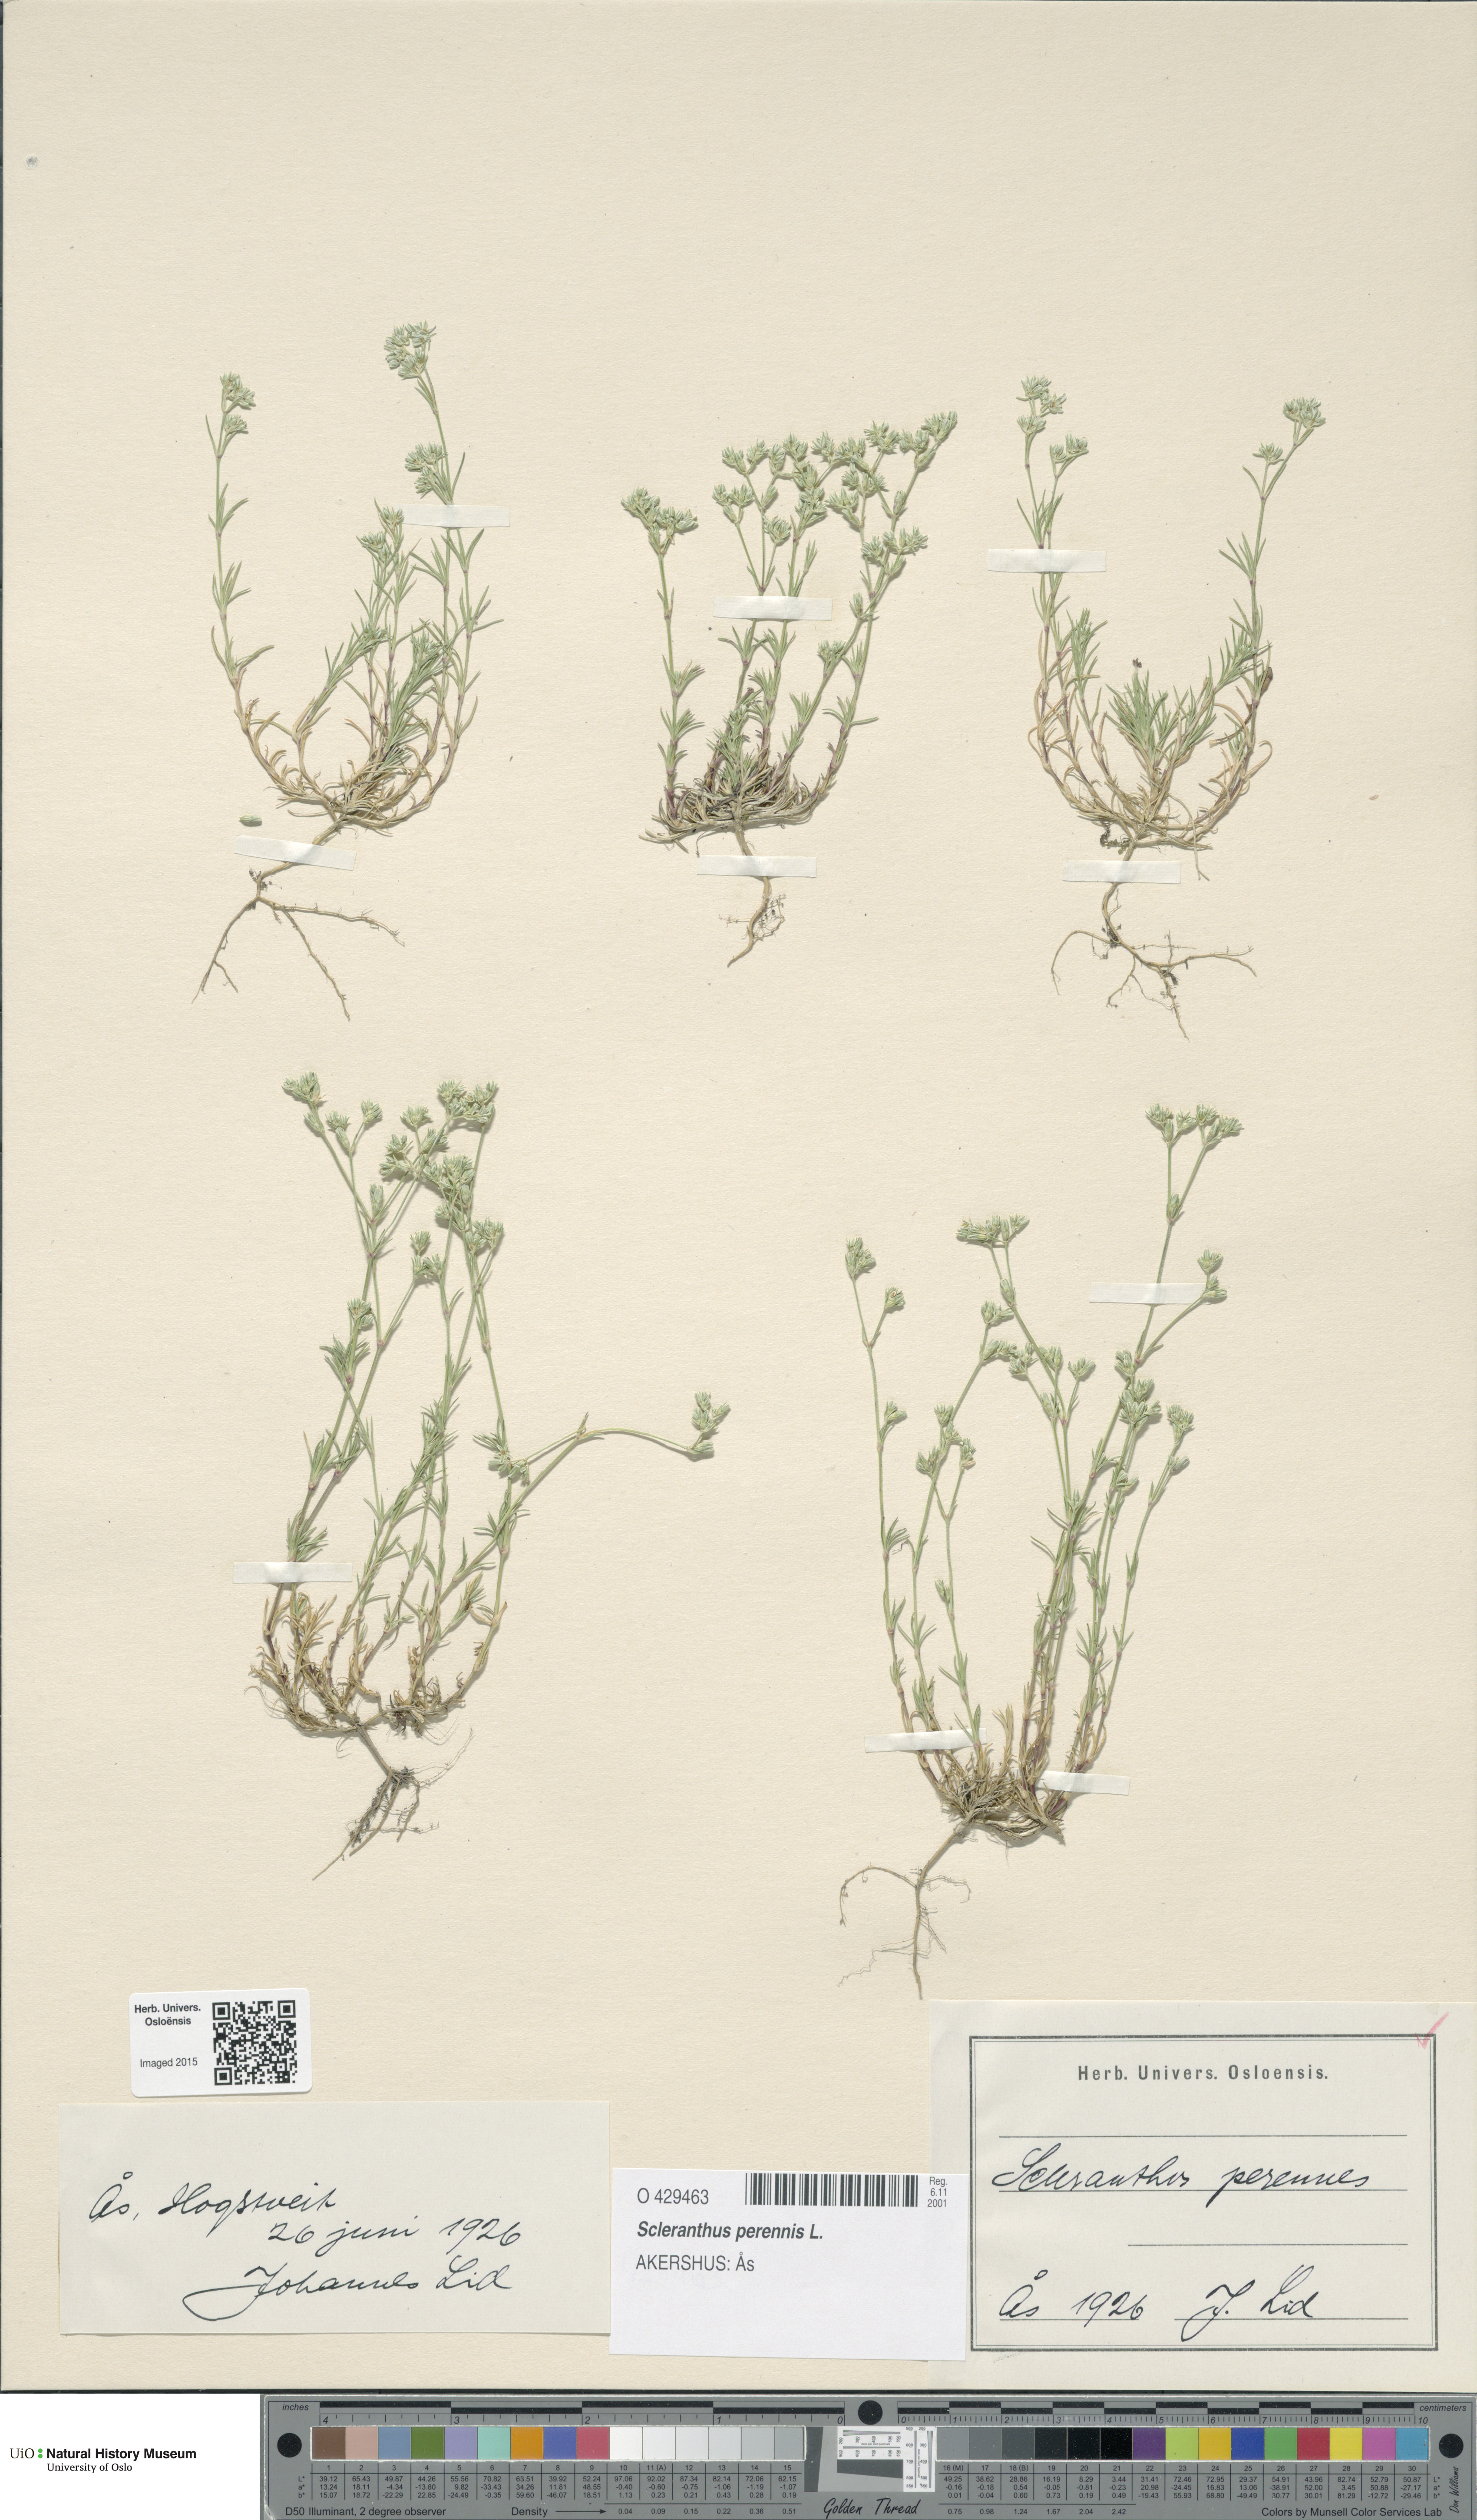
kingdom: Plantae
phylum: Tracheophyta
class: Magnoliopsida
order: Caryophyllales
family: Caryophyllaceae
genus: Scleranthus
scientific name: Scleranthus perennis
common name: Perennial knawel
